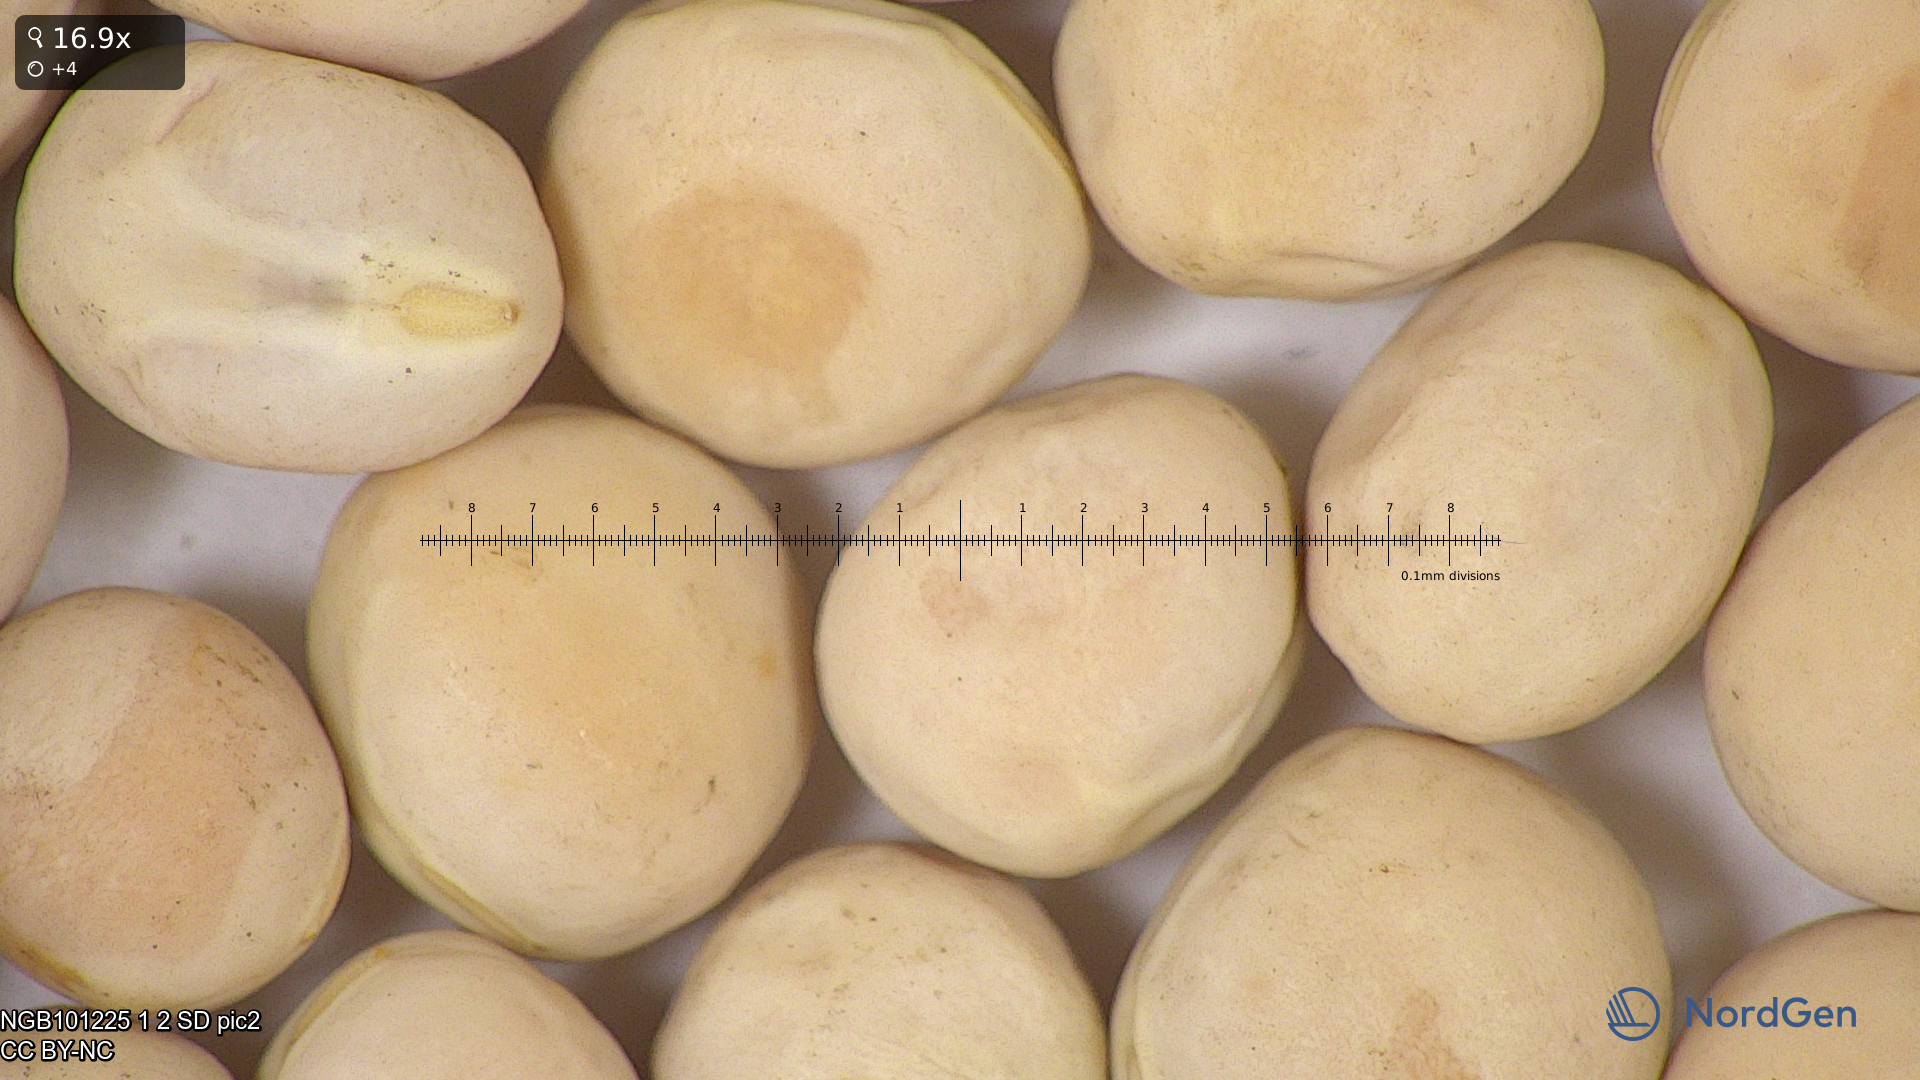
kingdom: Plantae
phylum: Tracheophyta
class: Magnoliopsida
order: Fabales
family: Fabaceae
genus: Lathyrus
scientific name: Lathyrus oleraceus
